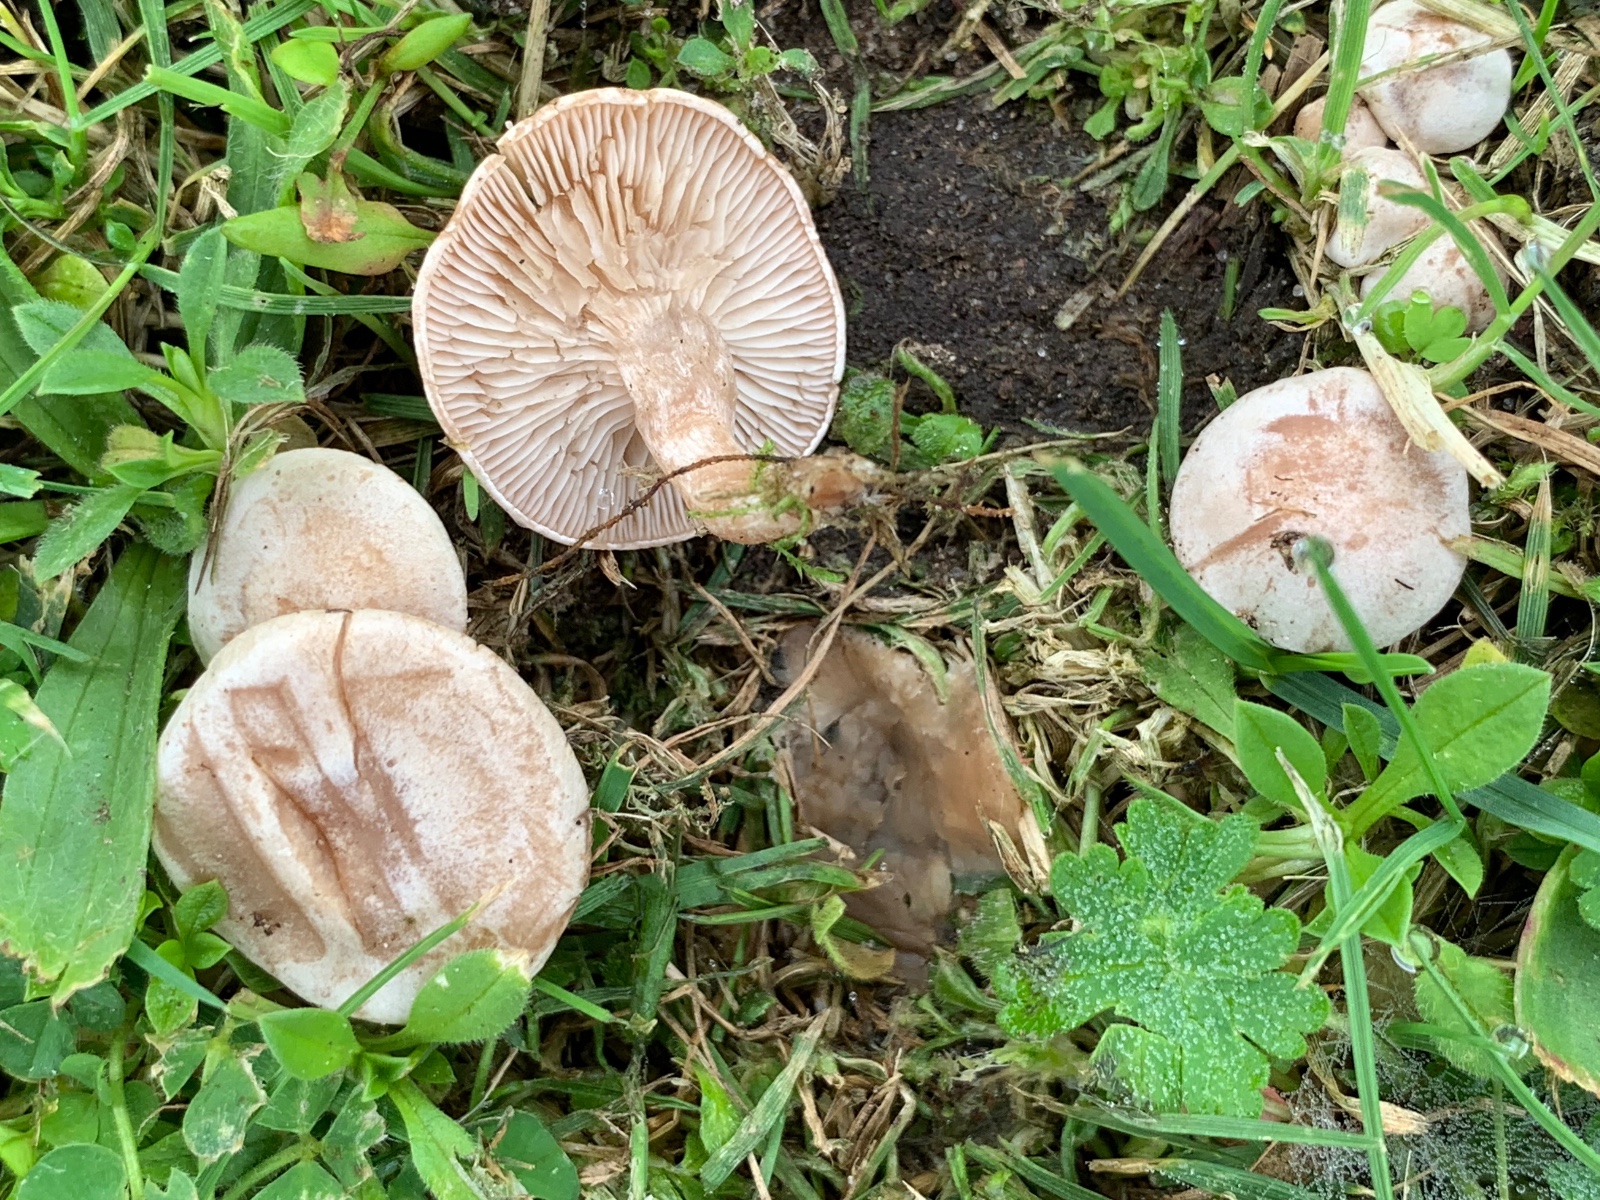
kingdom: Fungi
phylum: Basidiomycota
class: Agaricomycetes
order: Agaricales
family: Tricholomataceae
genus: Clitocybe
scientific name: Clitocybe rivulosa
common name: eng-tragthat
